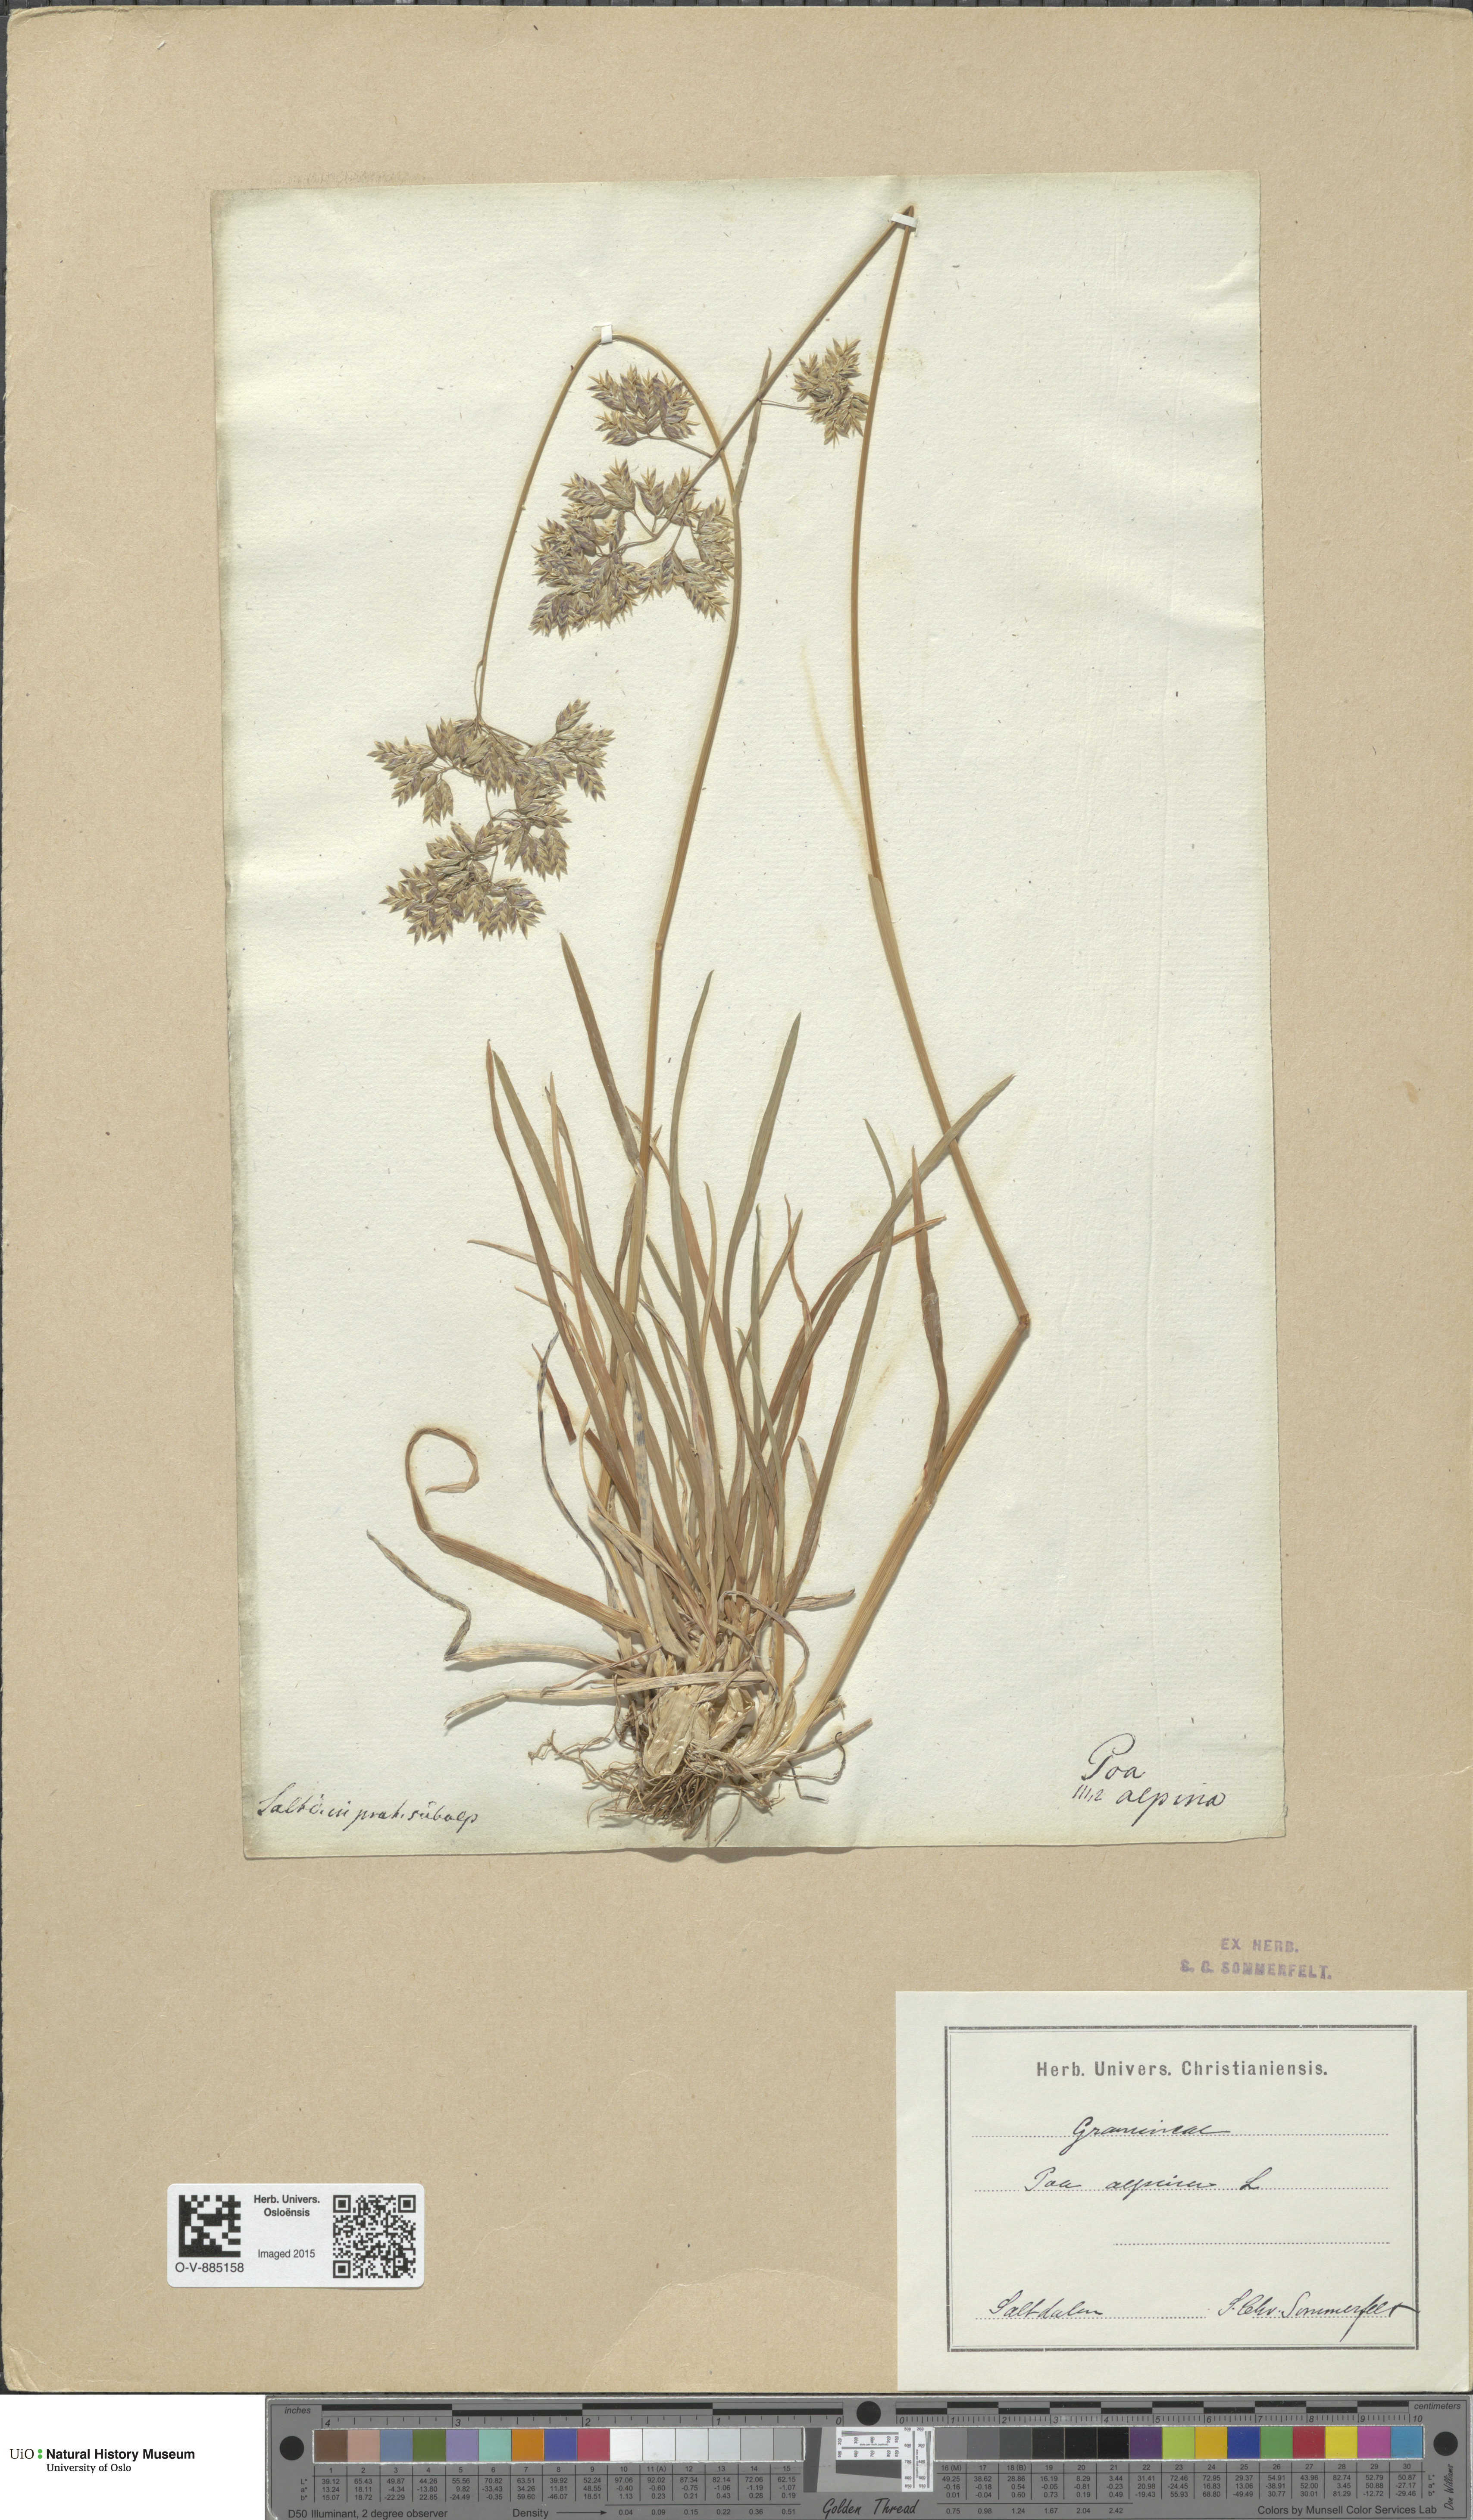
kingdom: Plantae
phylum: Tracheophyta
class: Liliopsida
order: Poales
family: Poaceae
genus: Poa
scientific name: Poa alpina
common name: Alpine bluegrass
